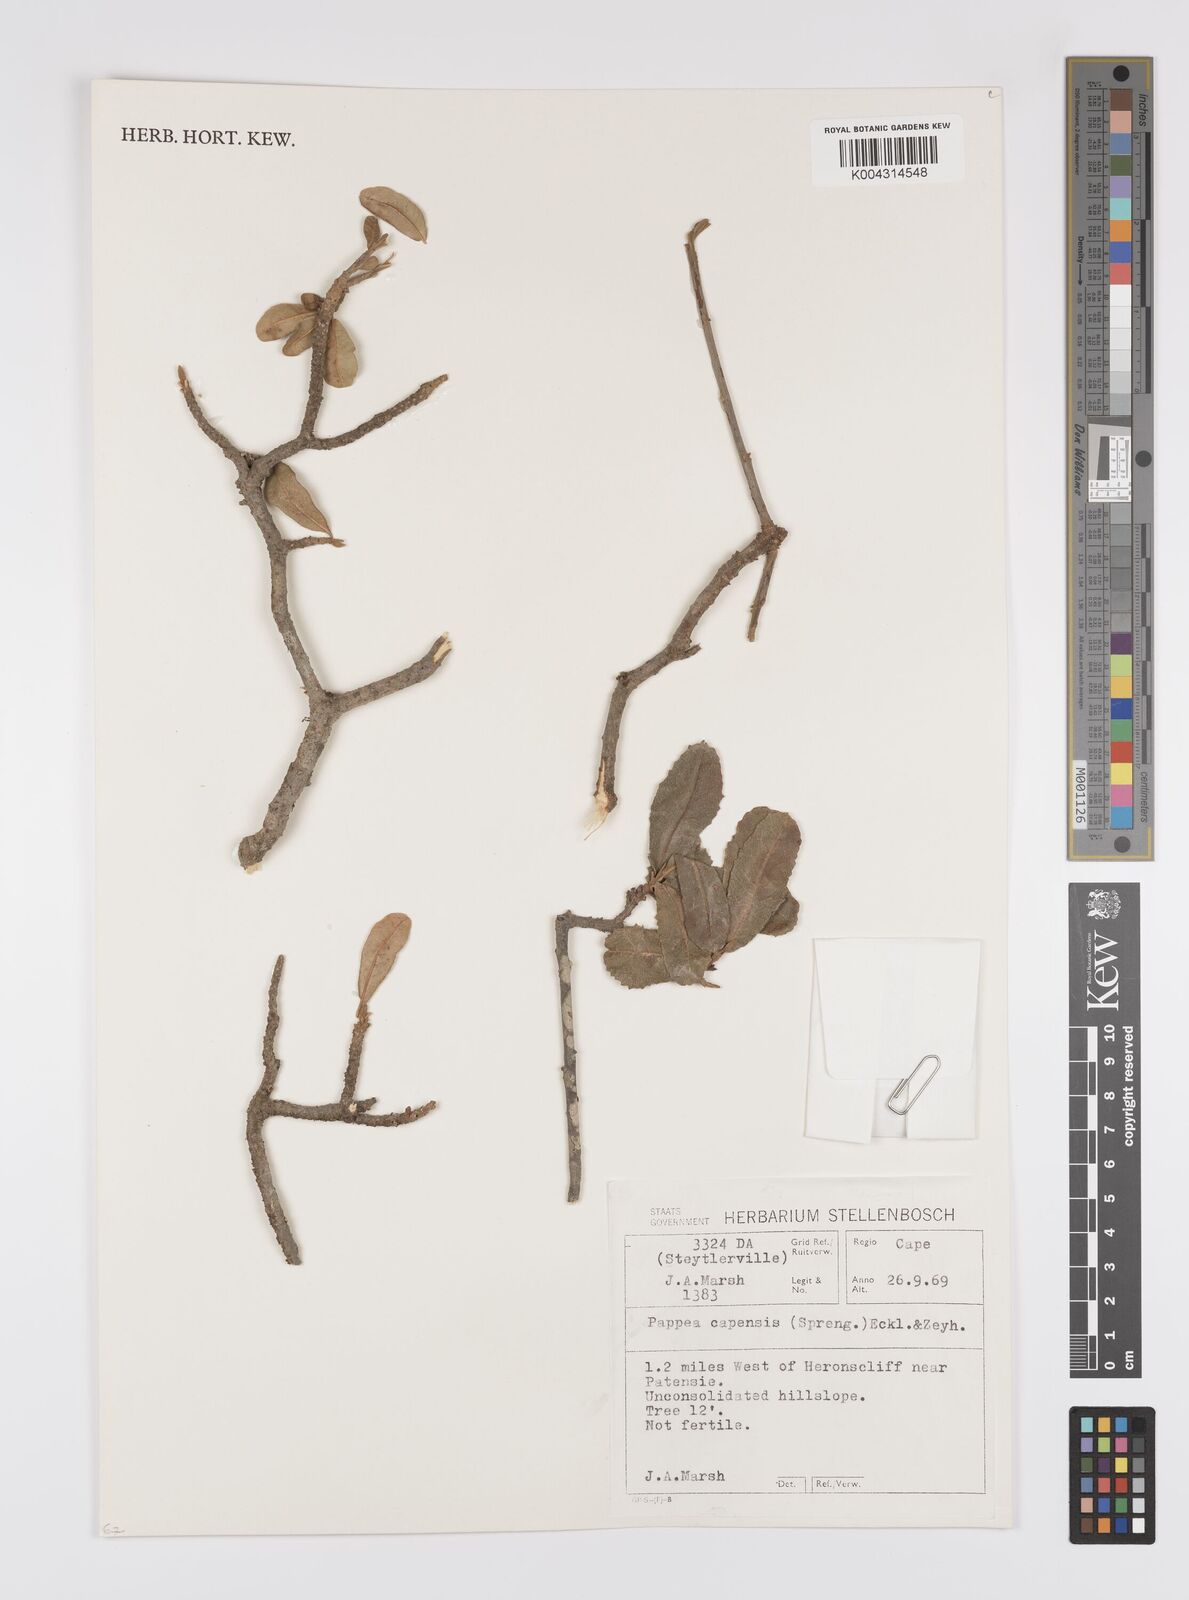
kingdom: Plantae
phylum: Tracheophyta
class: Magnoliopsida
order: Sapindales
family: Sapindaceae
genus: Pappea
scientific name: Pappea capensis
